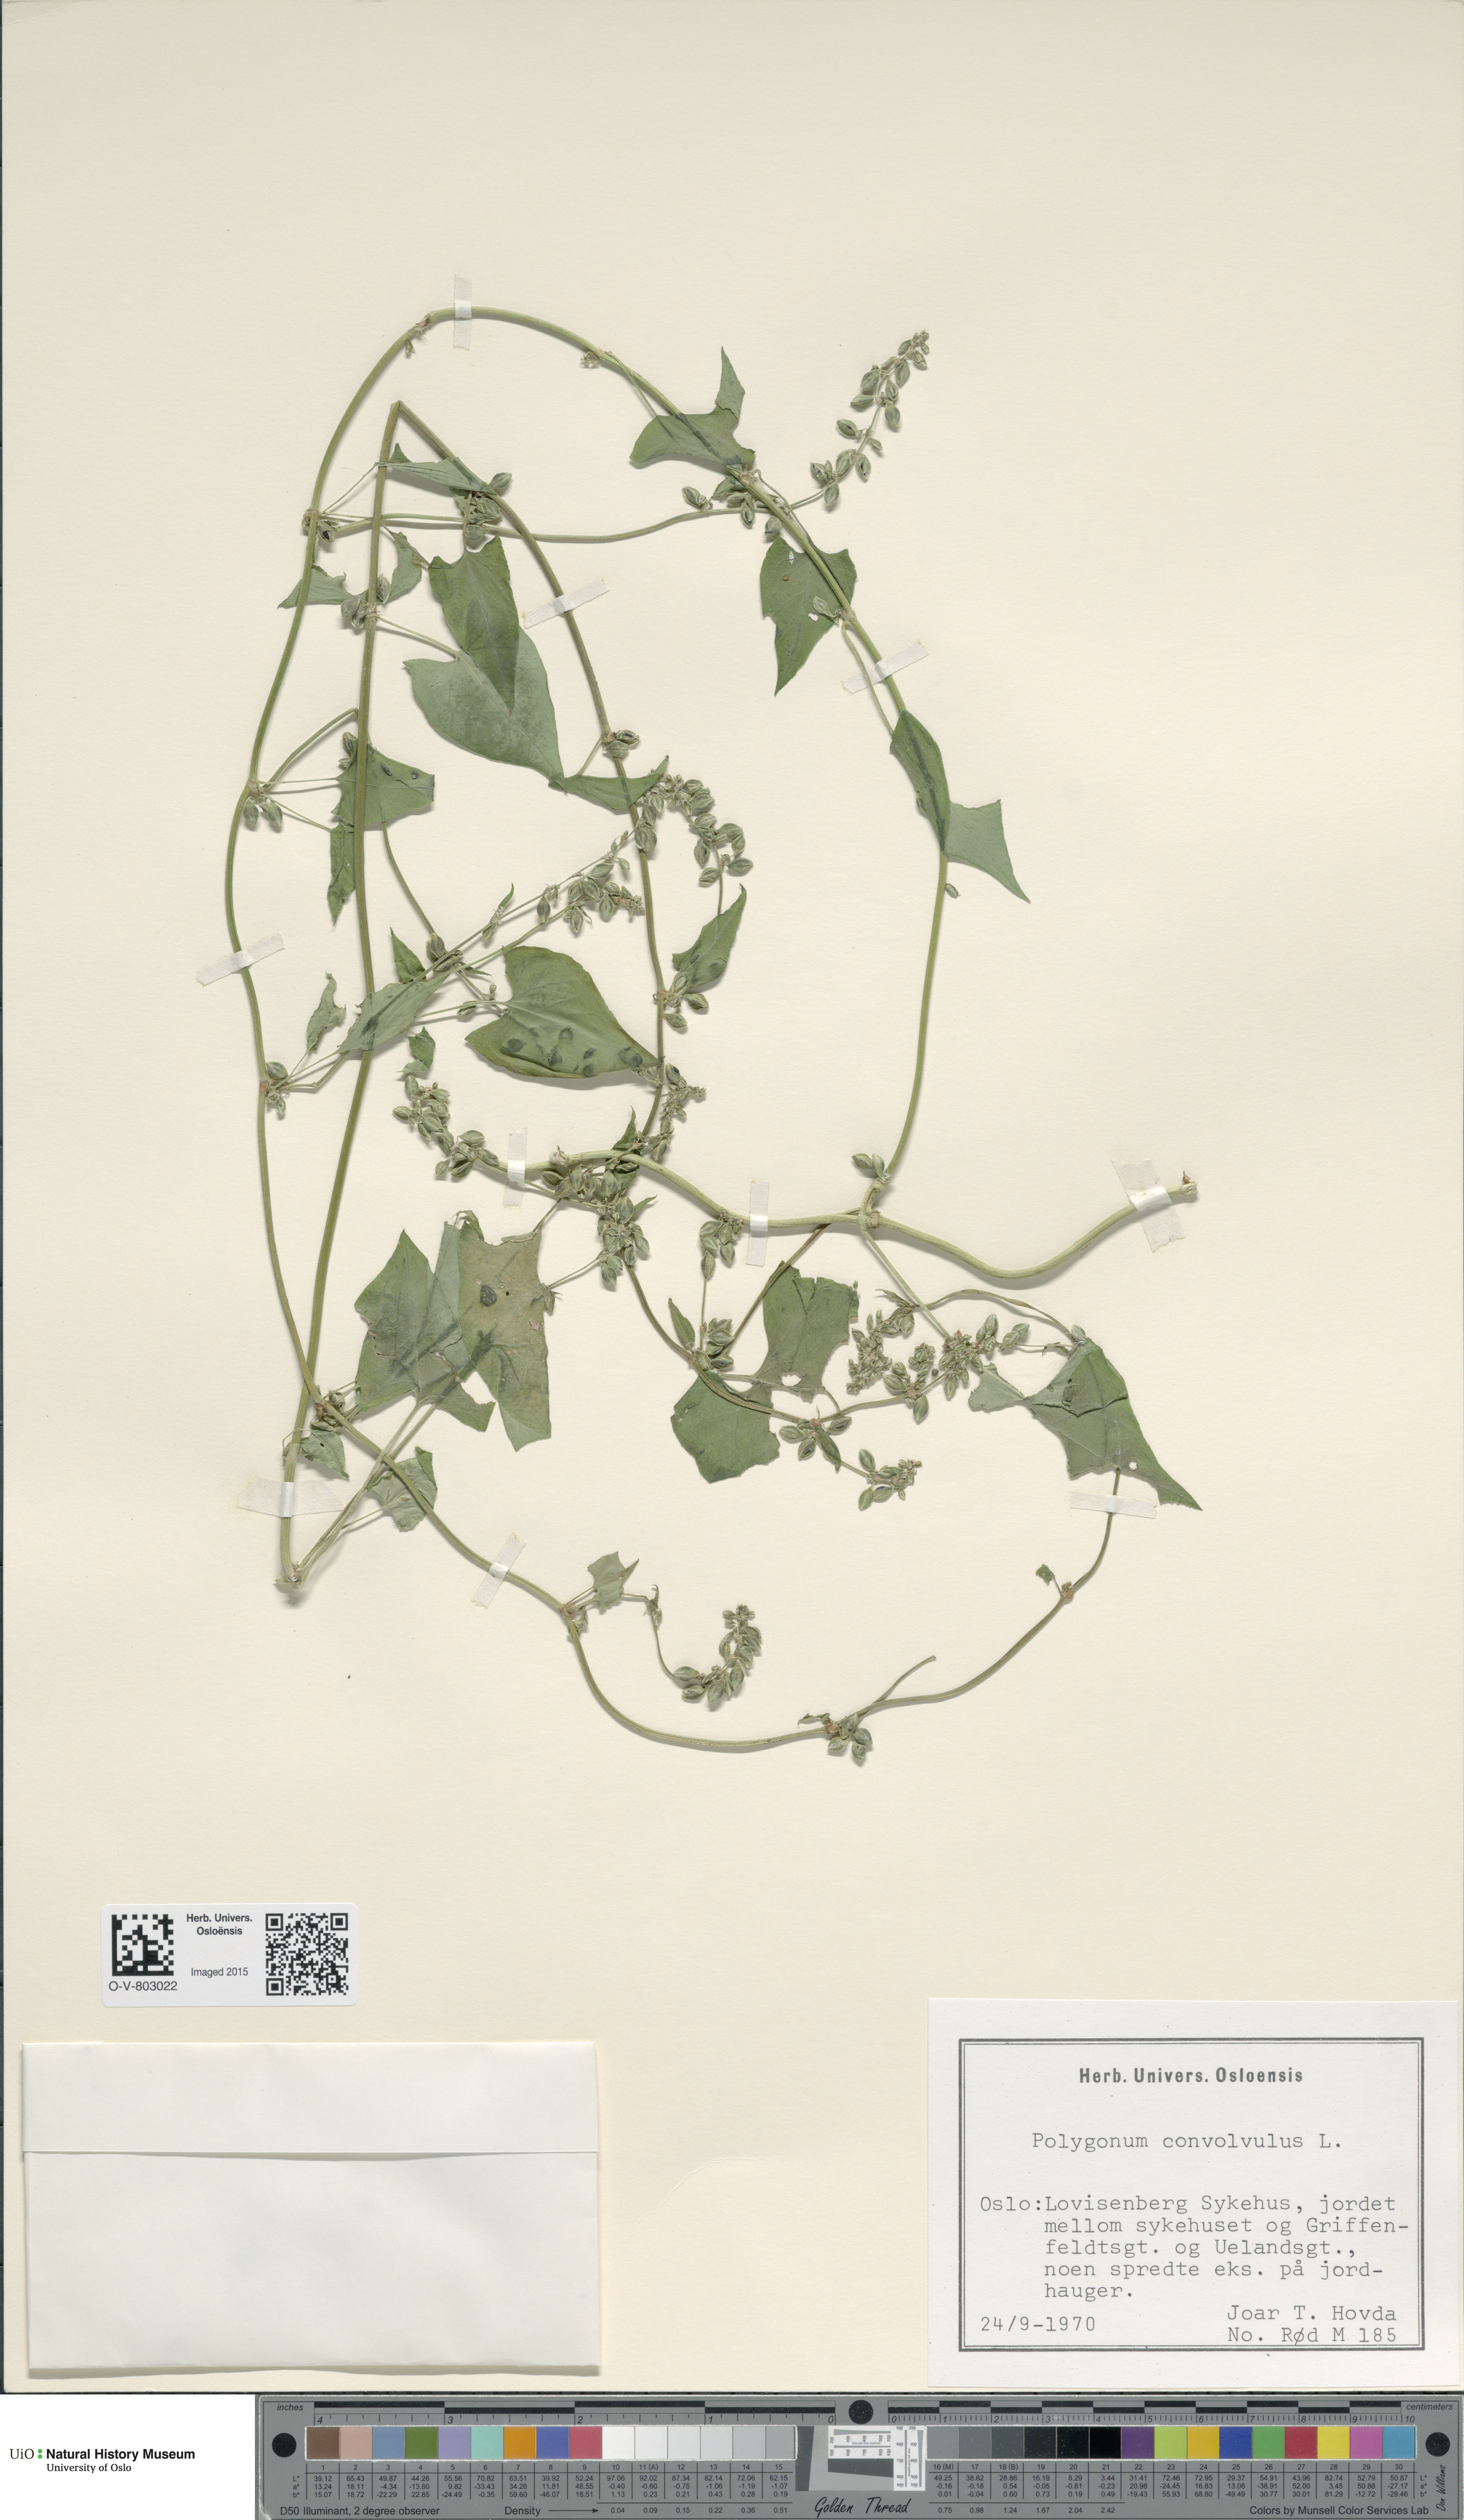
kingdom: Plantae
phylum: Tracheophyta
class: Magnoliopsida
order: Caryophyllales
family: Polygonaceae
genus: Fallopia
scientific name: Fallopia convolvulus
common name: Black bindweed
